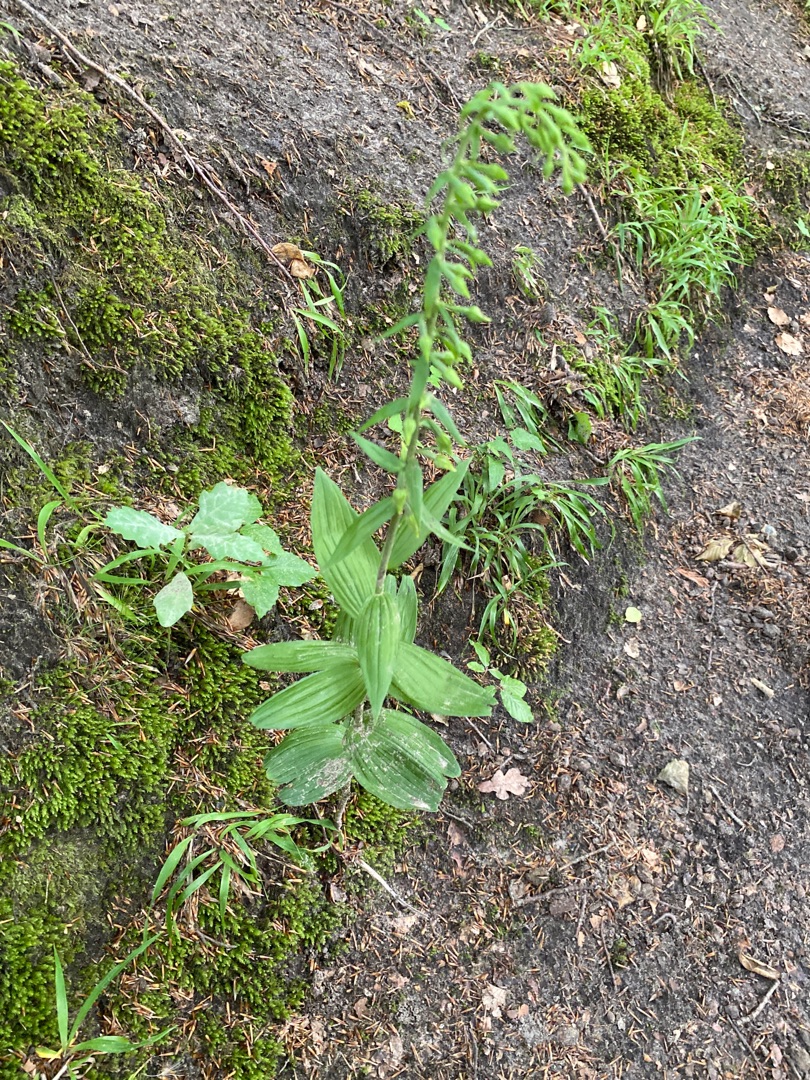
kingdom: Plantae
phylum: Tracheophyta
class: Liliopsida
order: Asparagales
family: Orchidaceae
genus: Epipactis
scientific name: Epipactis helleborine
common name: Skov-hullæbe
